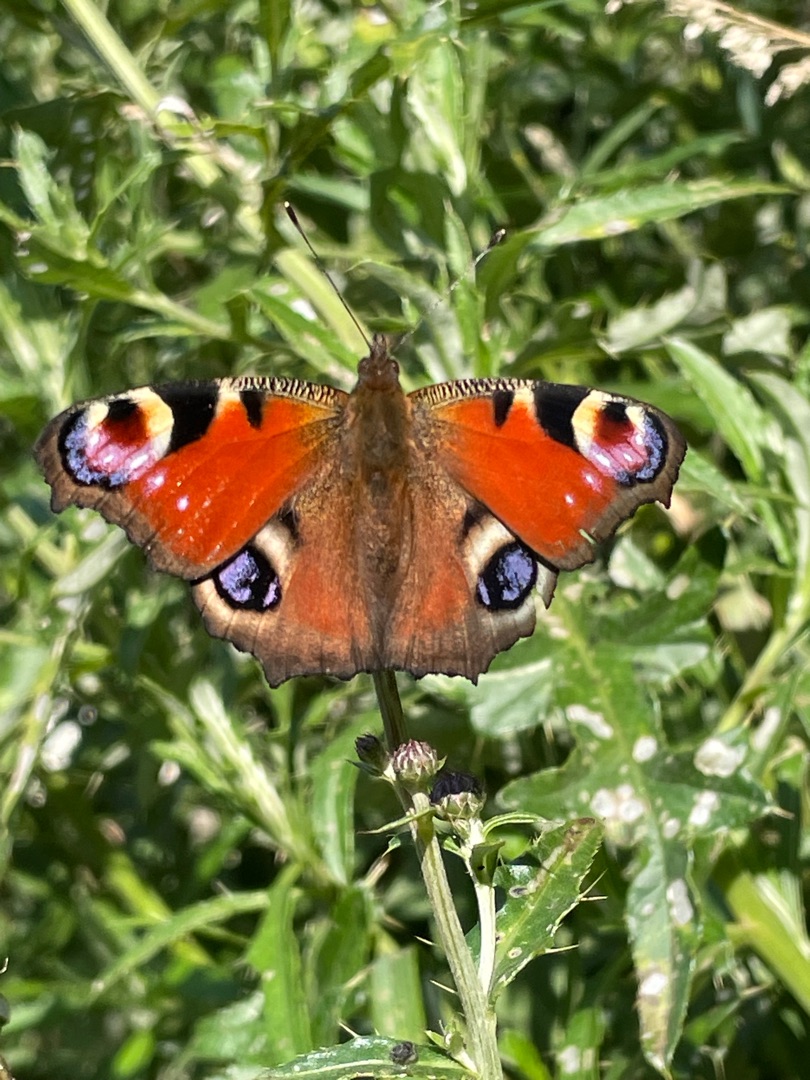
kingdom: Animalia
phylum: Arthropoda
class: Insecta
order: Lepidoptera
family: Nymphalidae
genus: Aglais
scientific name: Aglais io
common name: Dagpåfugleøje
